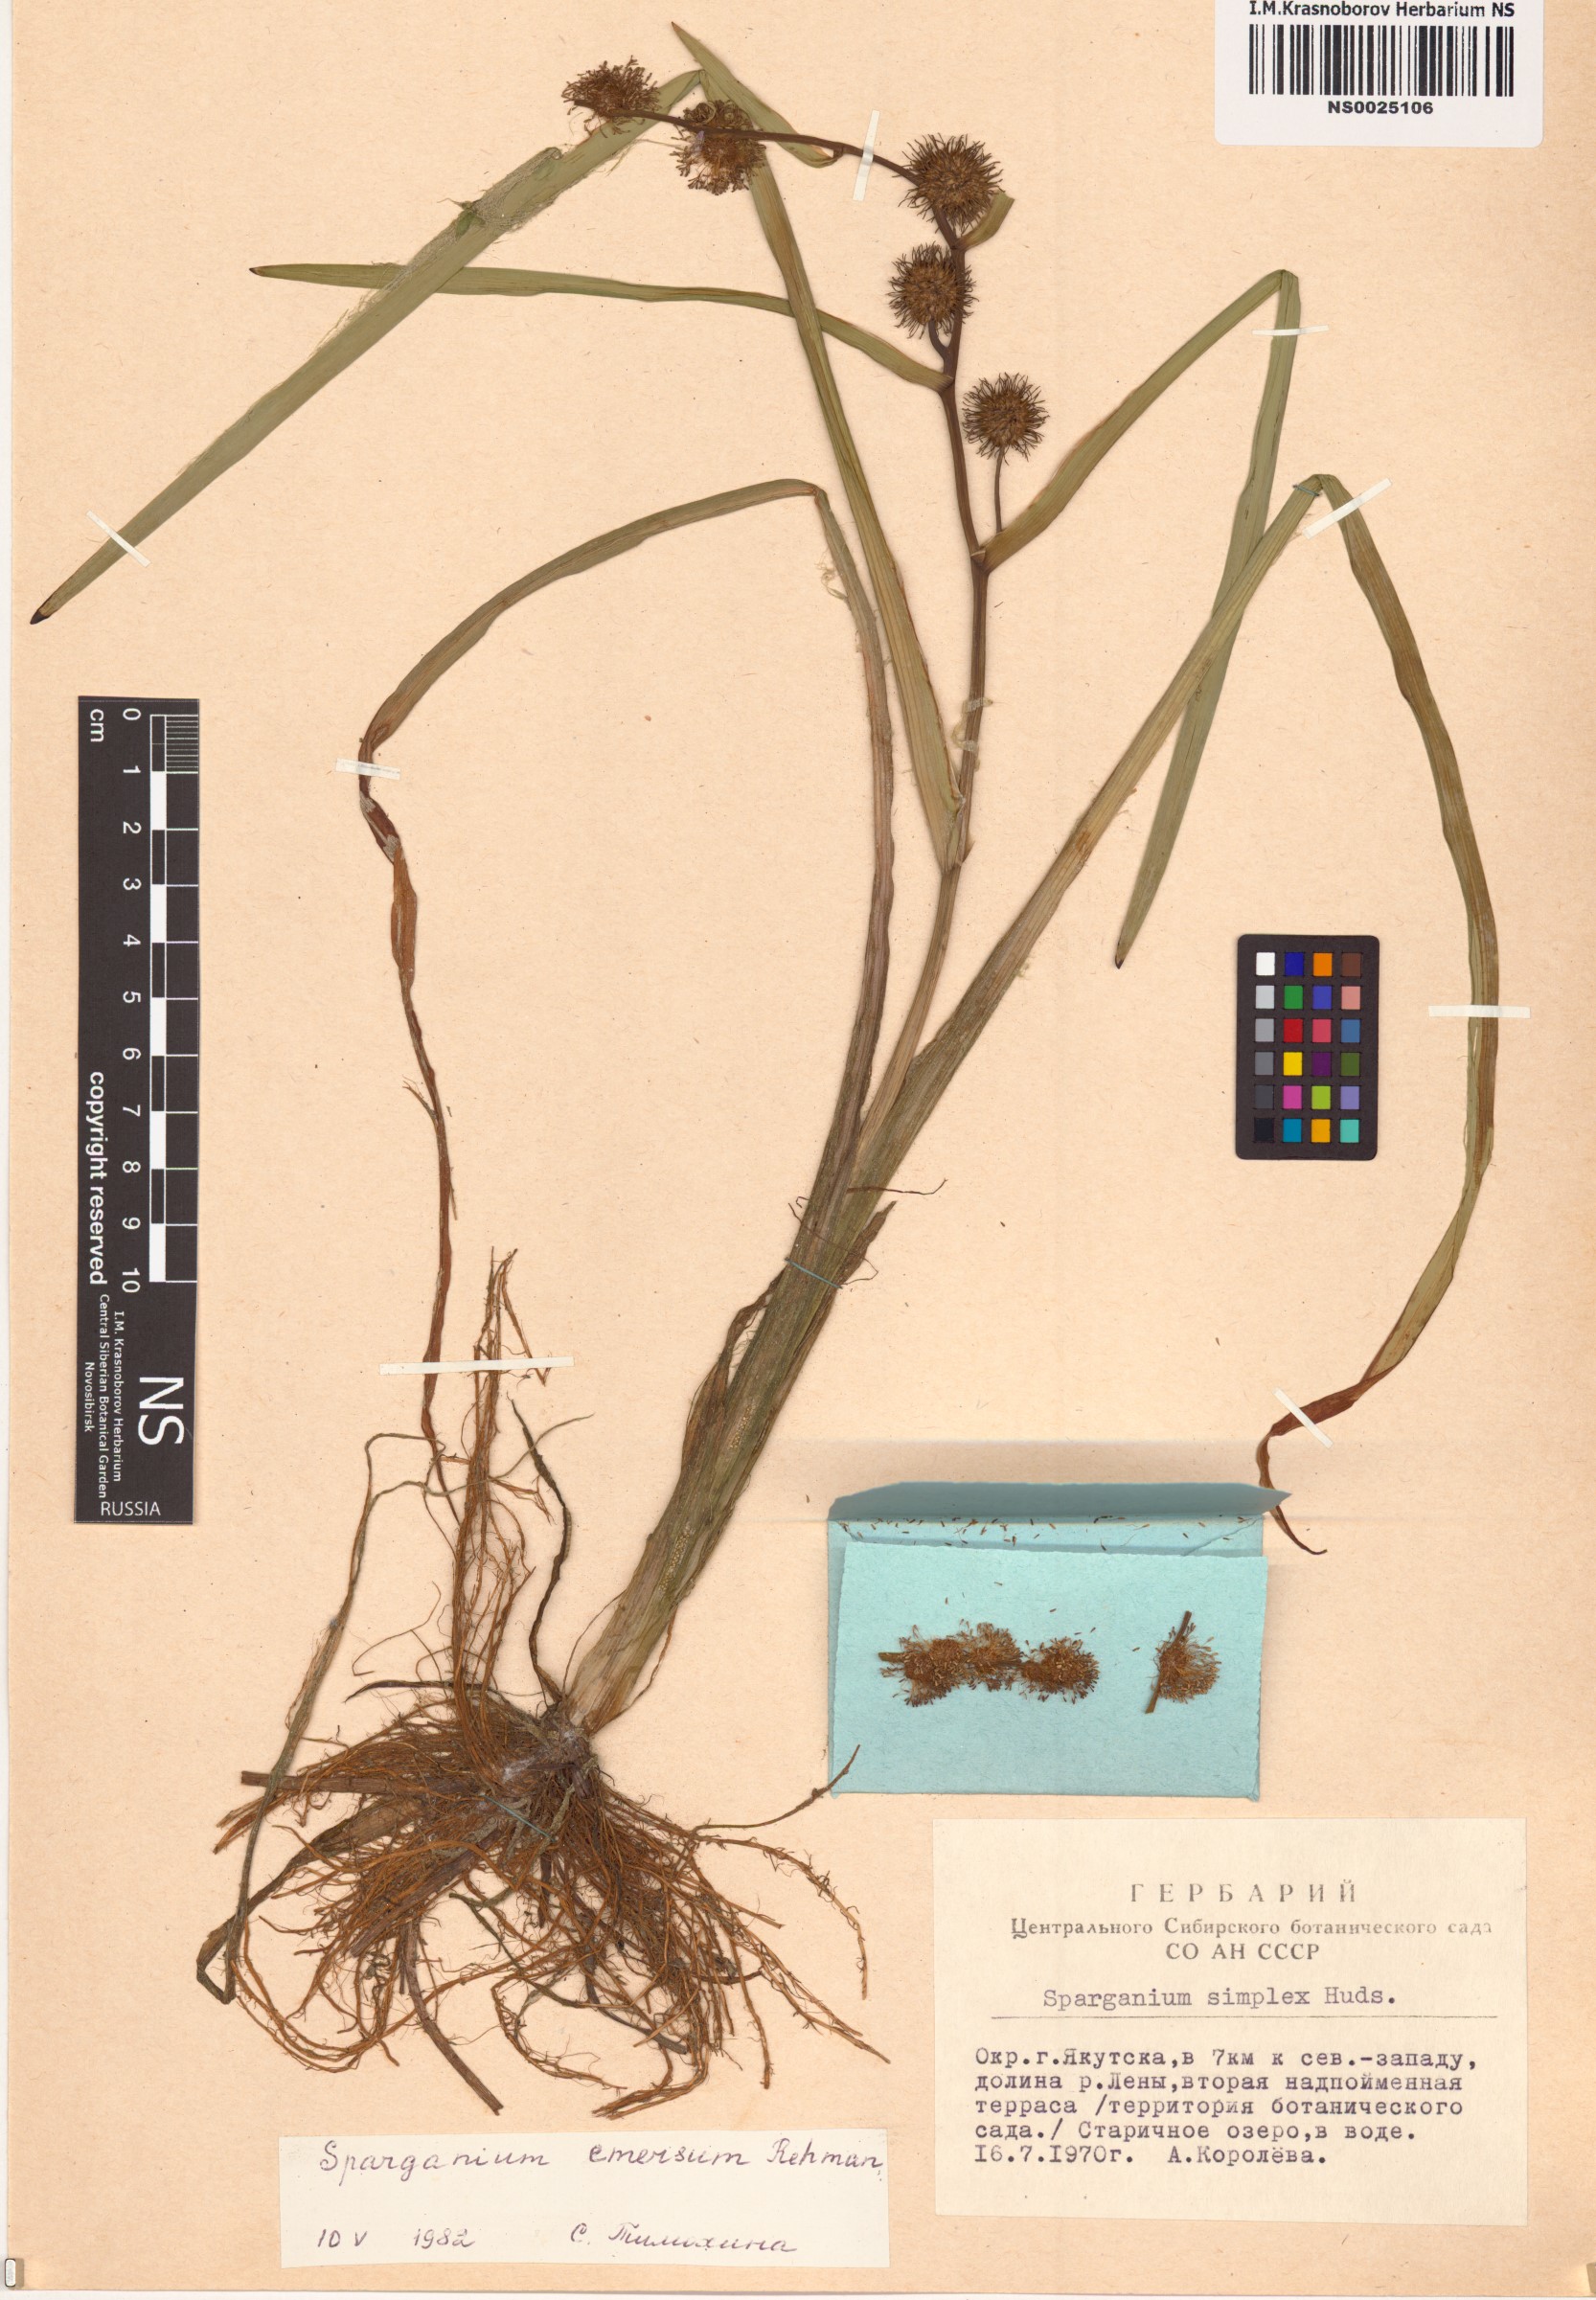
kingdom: Plantae
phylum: Tracheophyta
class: Liliopsida
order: Poales
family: Typhaceae
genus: Sparganium
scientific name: Sparganium emersum
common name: Unbranched bur-reed
